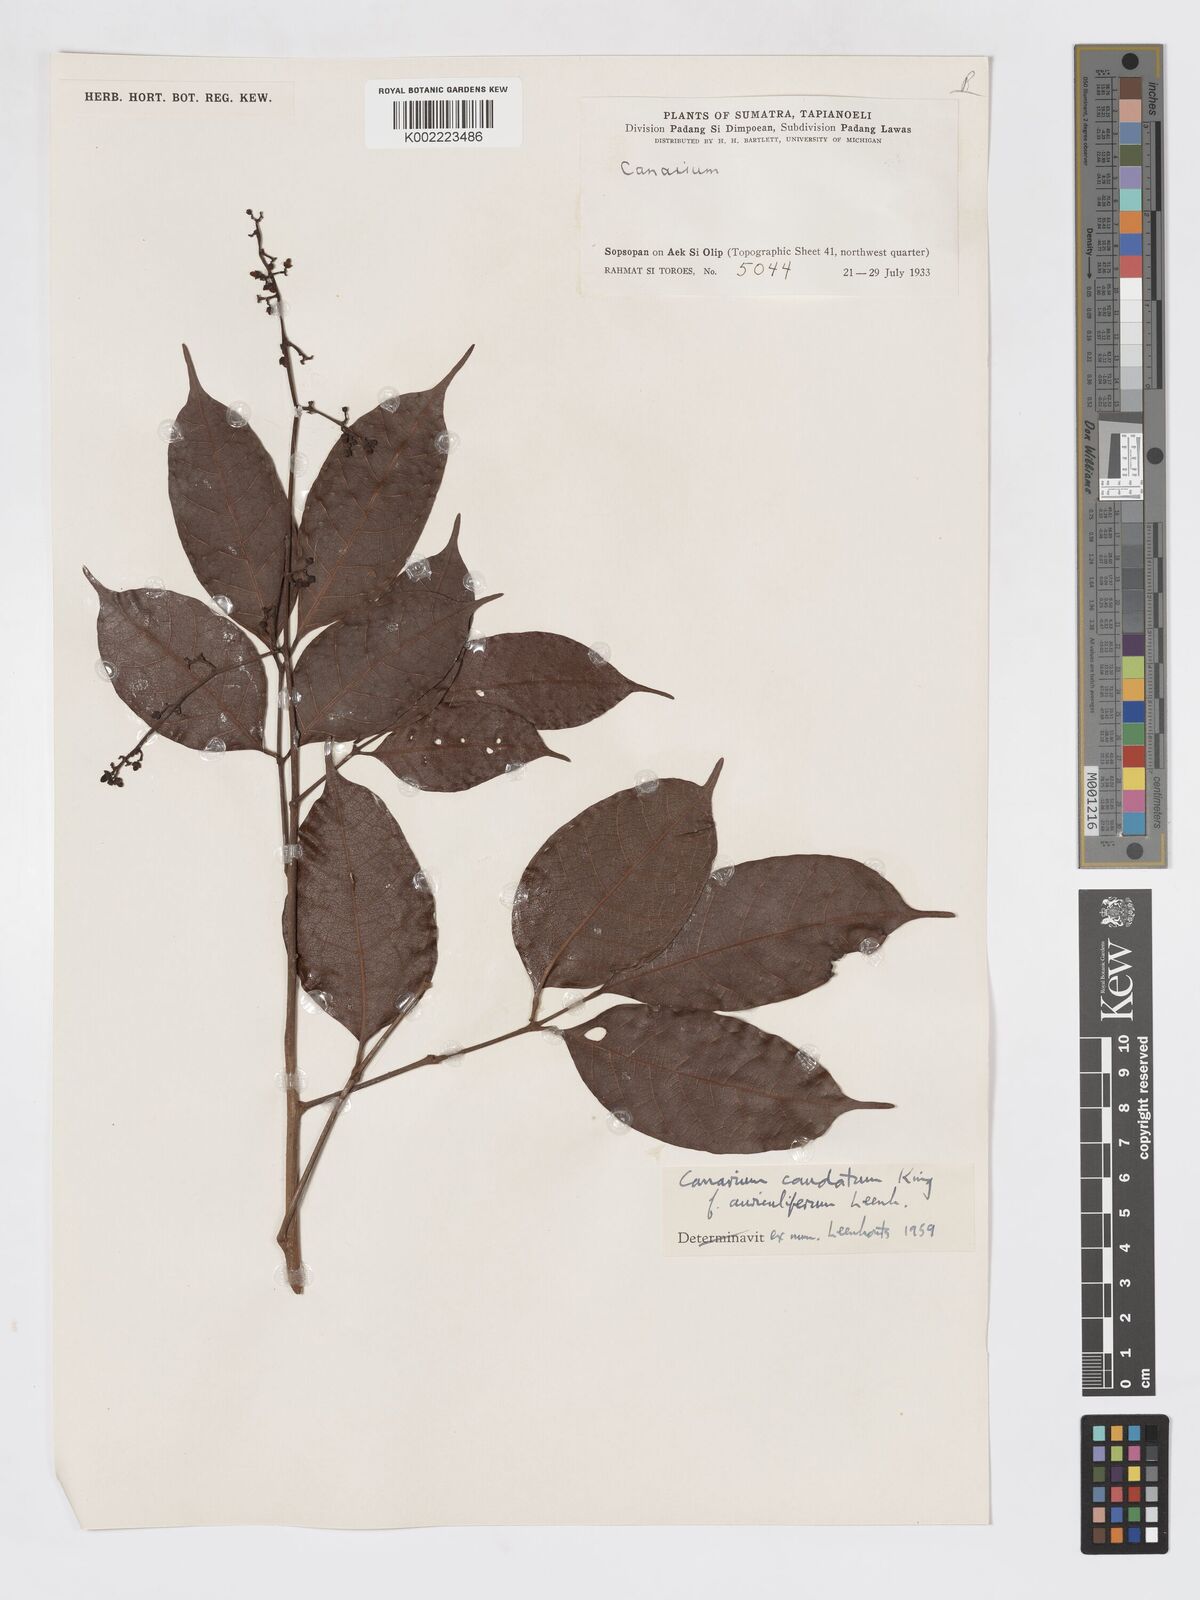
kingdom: Plantae
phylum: Tracheophyta
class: Magnoliopsida
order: Sapindales
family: Burseraceae
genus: Canarium
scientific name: Canarium caudatum
